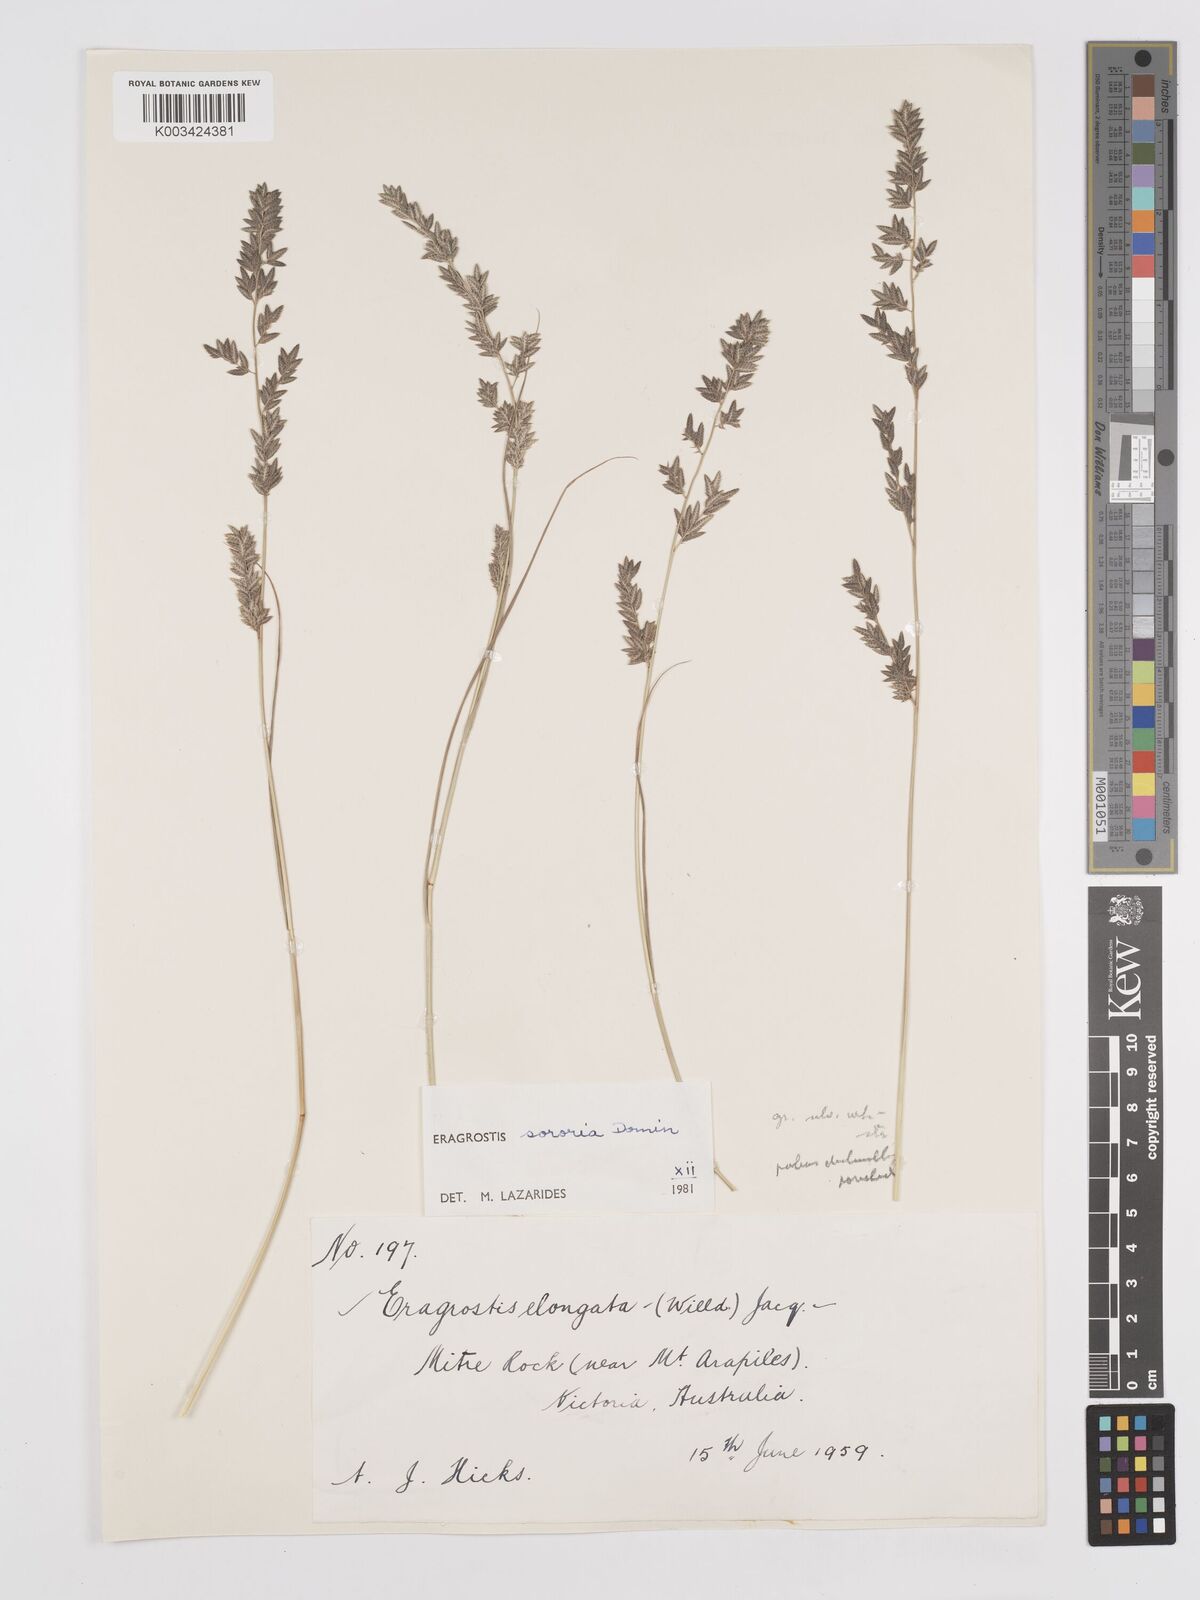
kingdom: Plantae
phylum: Tracheophyta
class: Liliopsida
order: Poales
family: Poaceae
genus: Eragrostis
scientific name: Eragrostis sororia
